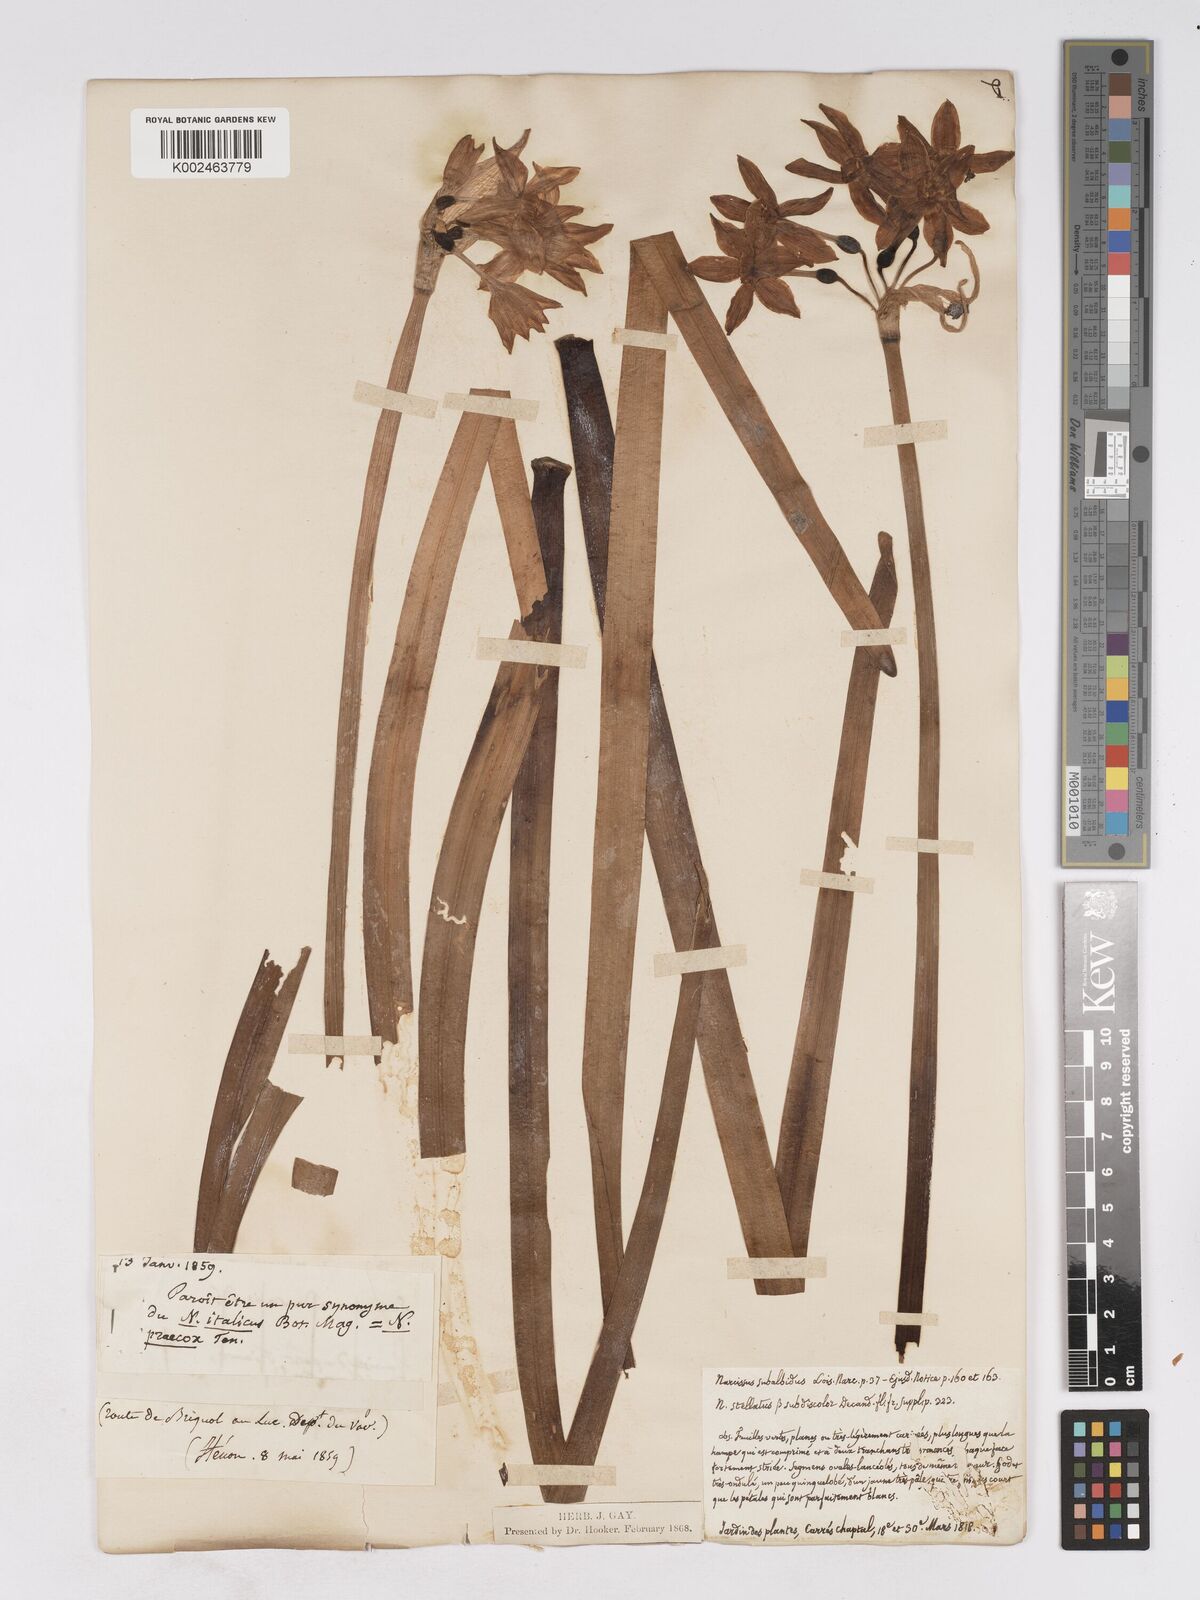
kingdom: Plantae
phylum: Tracheophyta
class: Liliopsida
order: Asparagales
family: Amaryllidaceae
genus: Narcissus
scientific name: Narcissus
